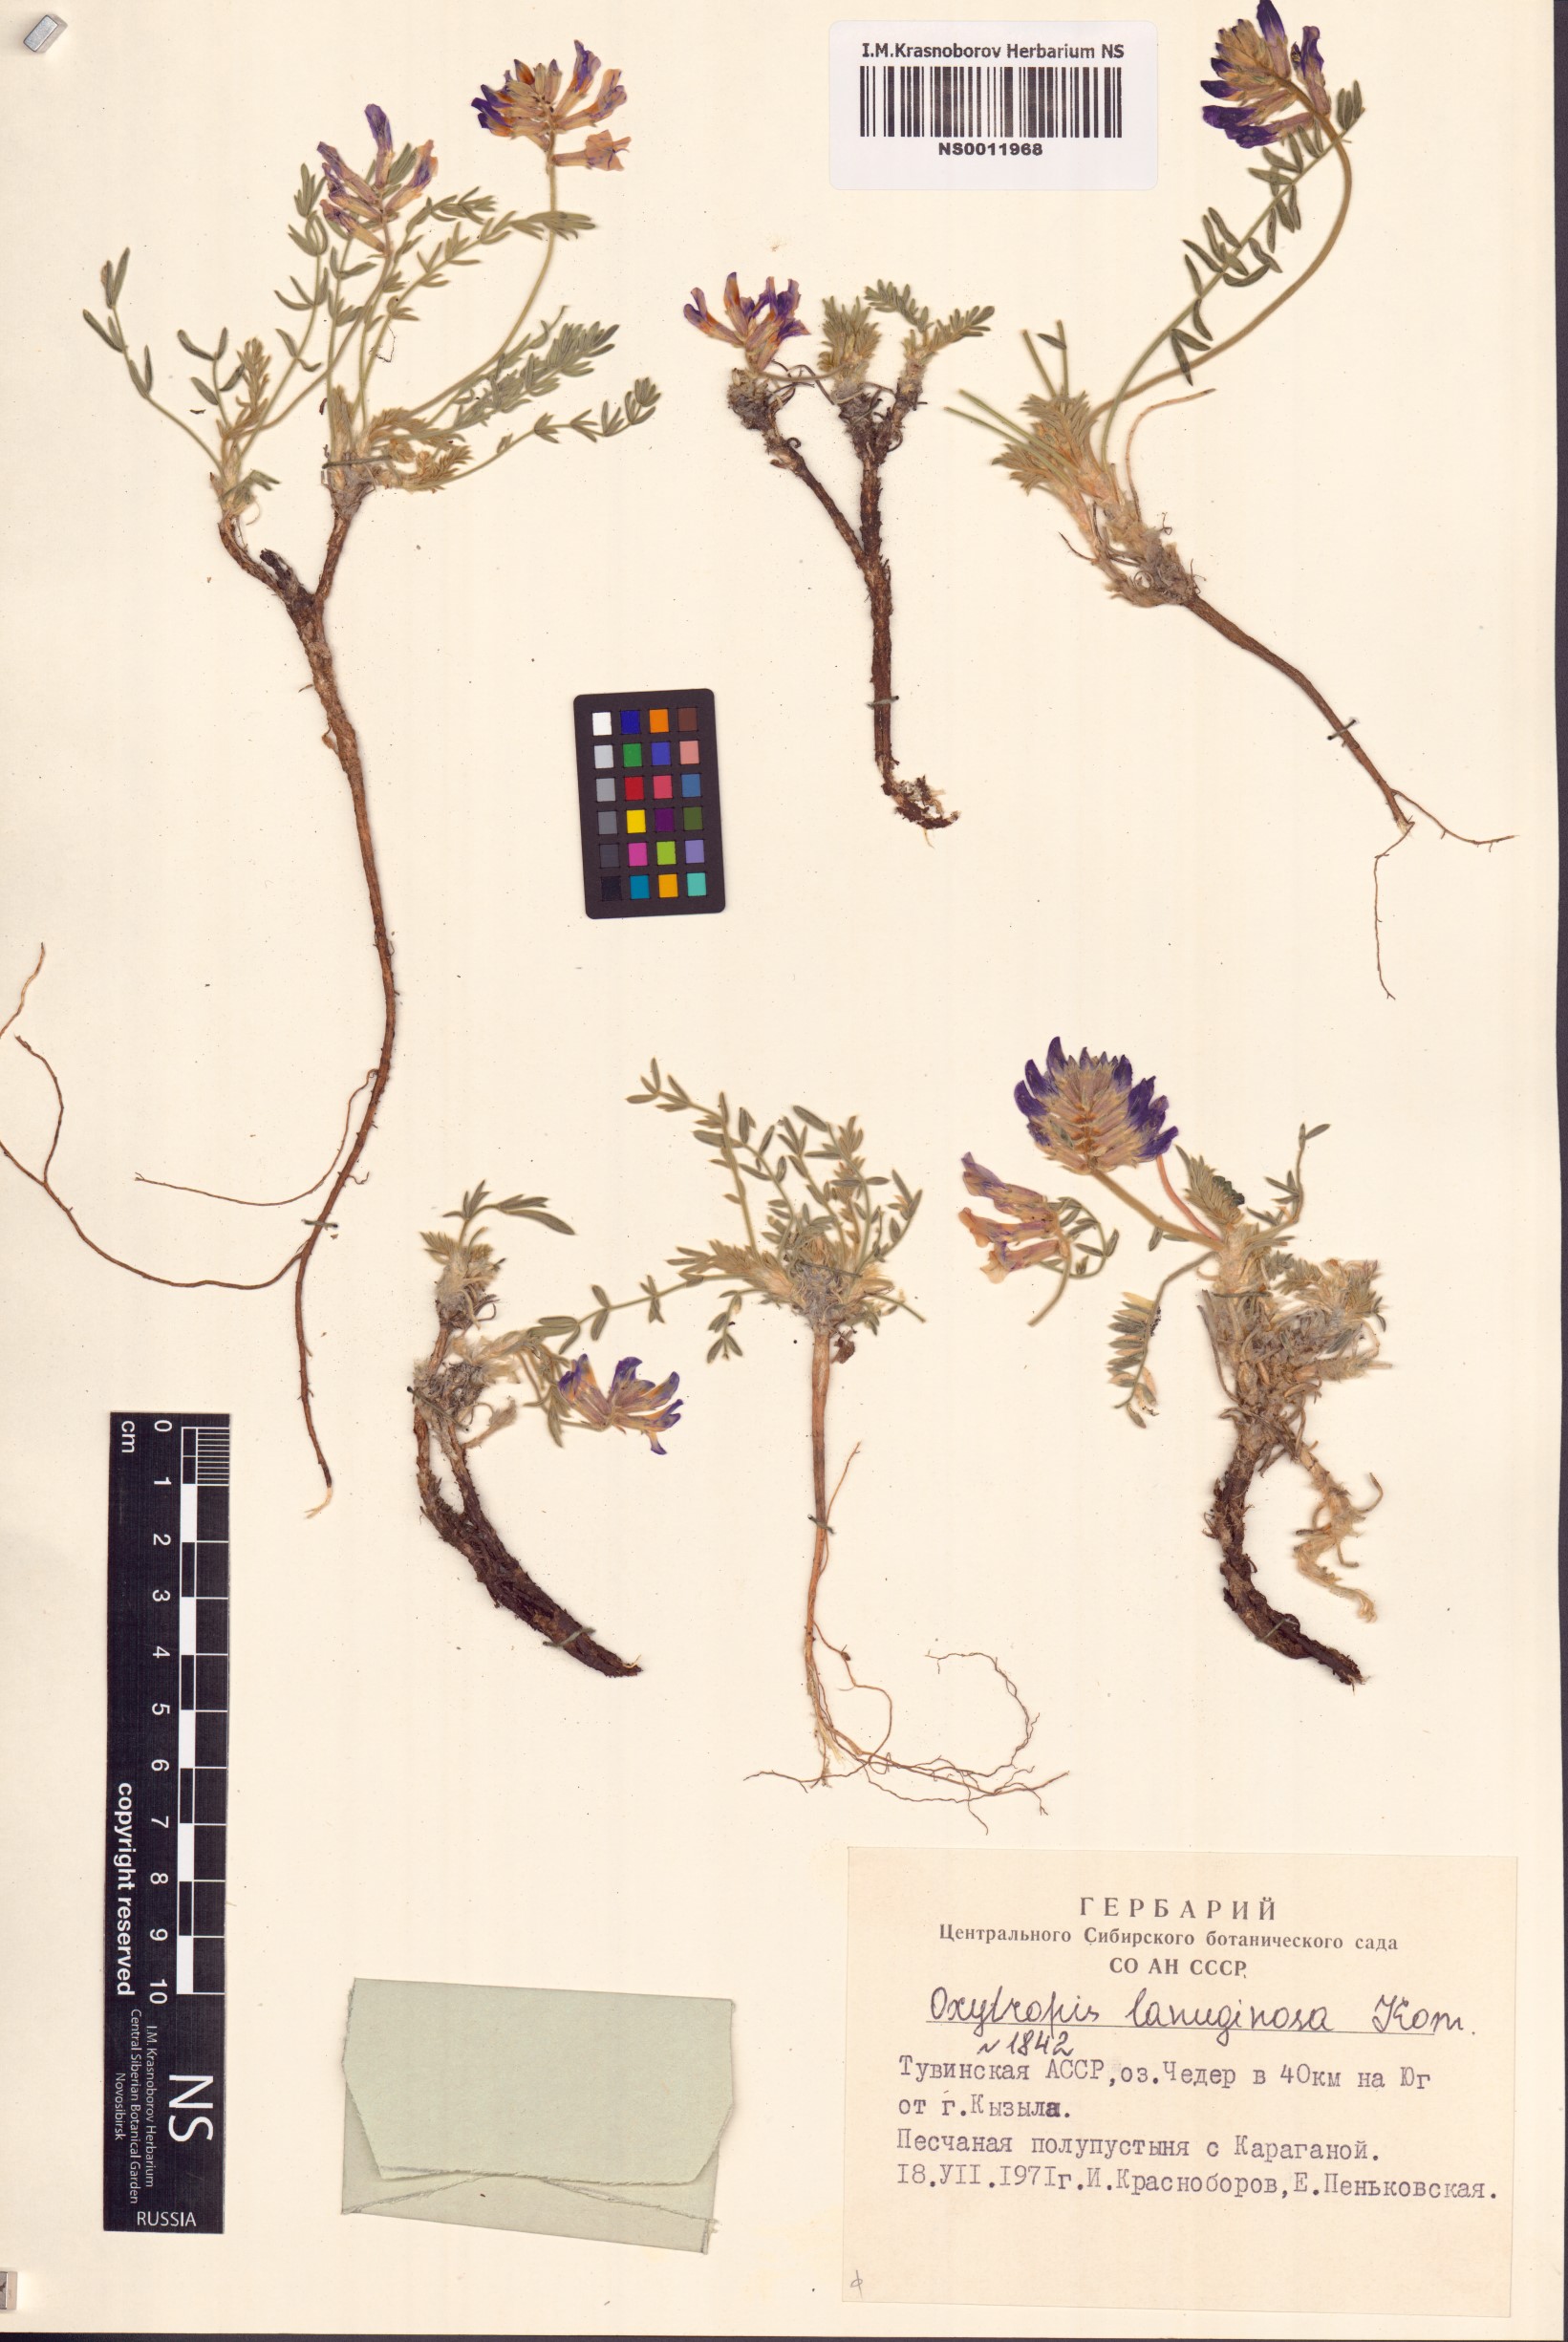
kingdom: Plantae
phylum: Tracheophyta
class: Magnoliopsida
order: Fabales
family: Fabaceae
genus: Oxytropis
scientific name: Oxytropis lanuginosa
